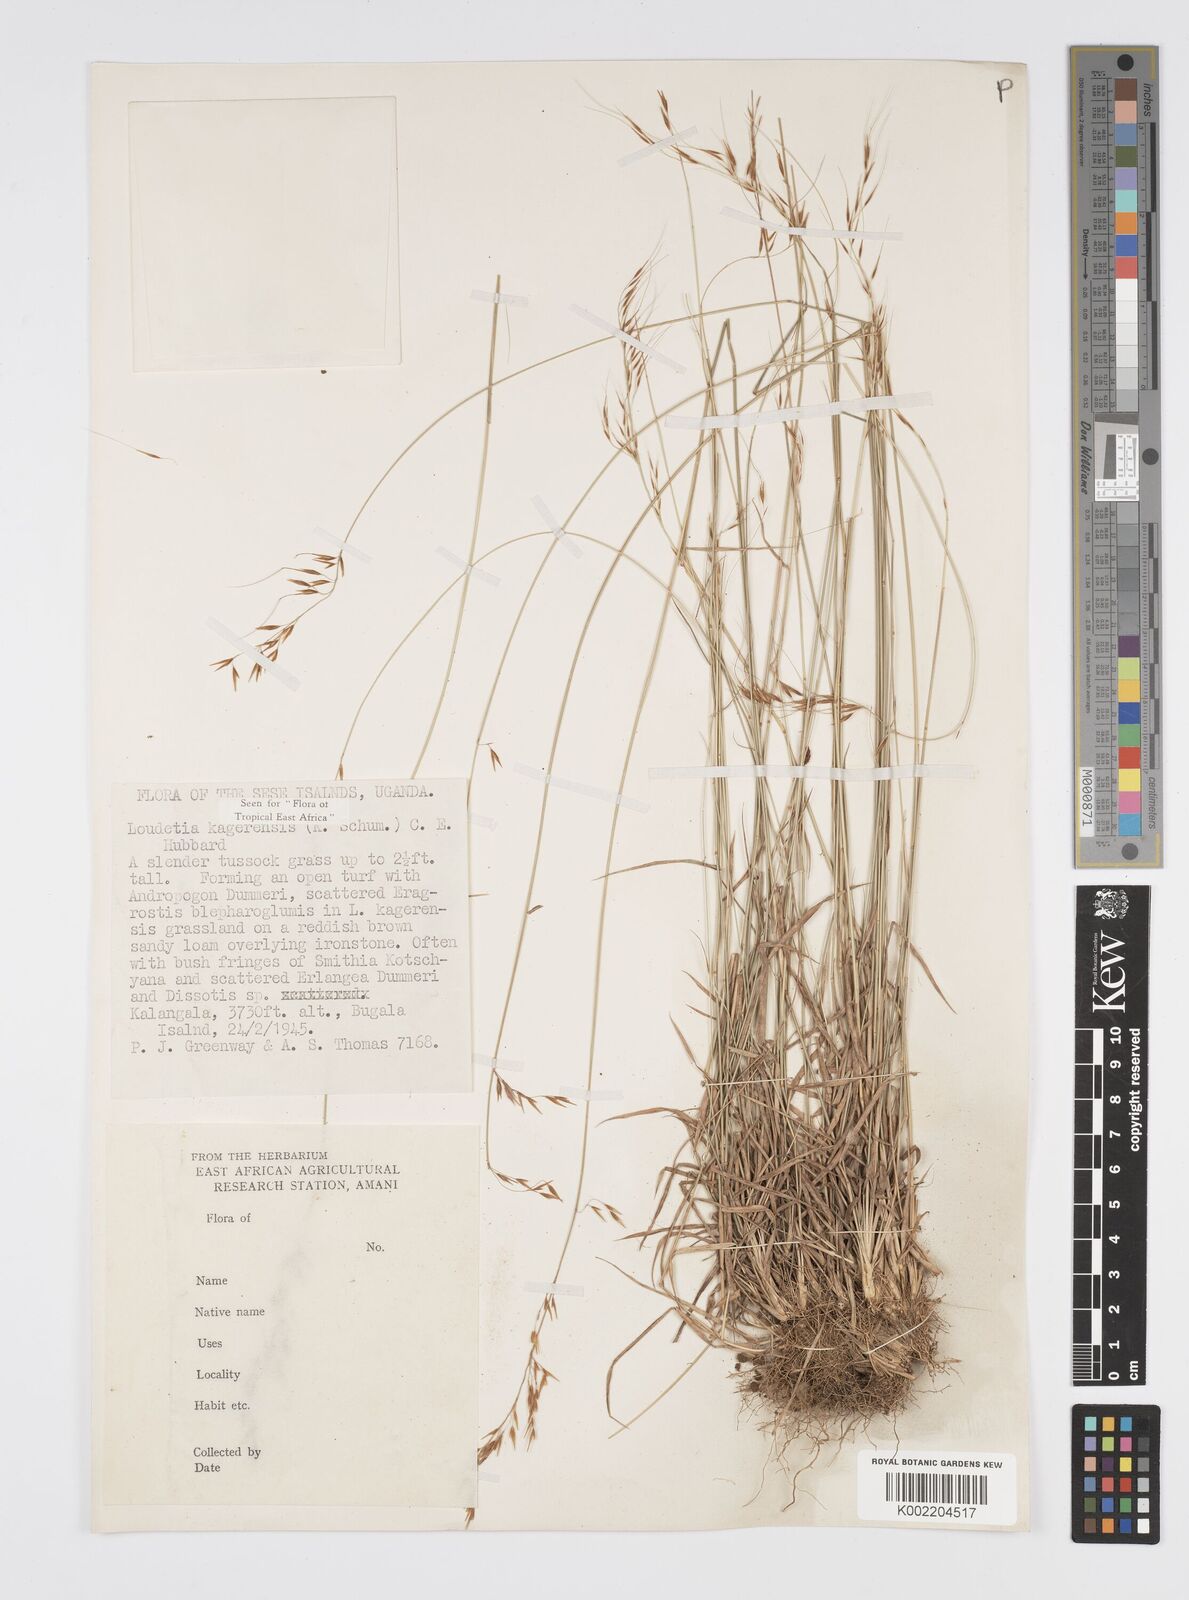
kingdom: Plantae
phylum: Tracheophyta
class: Liliopsida
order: Poales
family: Poaceae
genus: Loudetia
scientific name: Loudetia kagerensis
